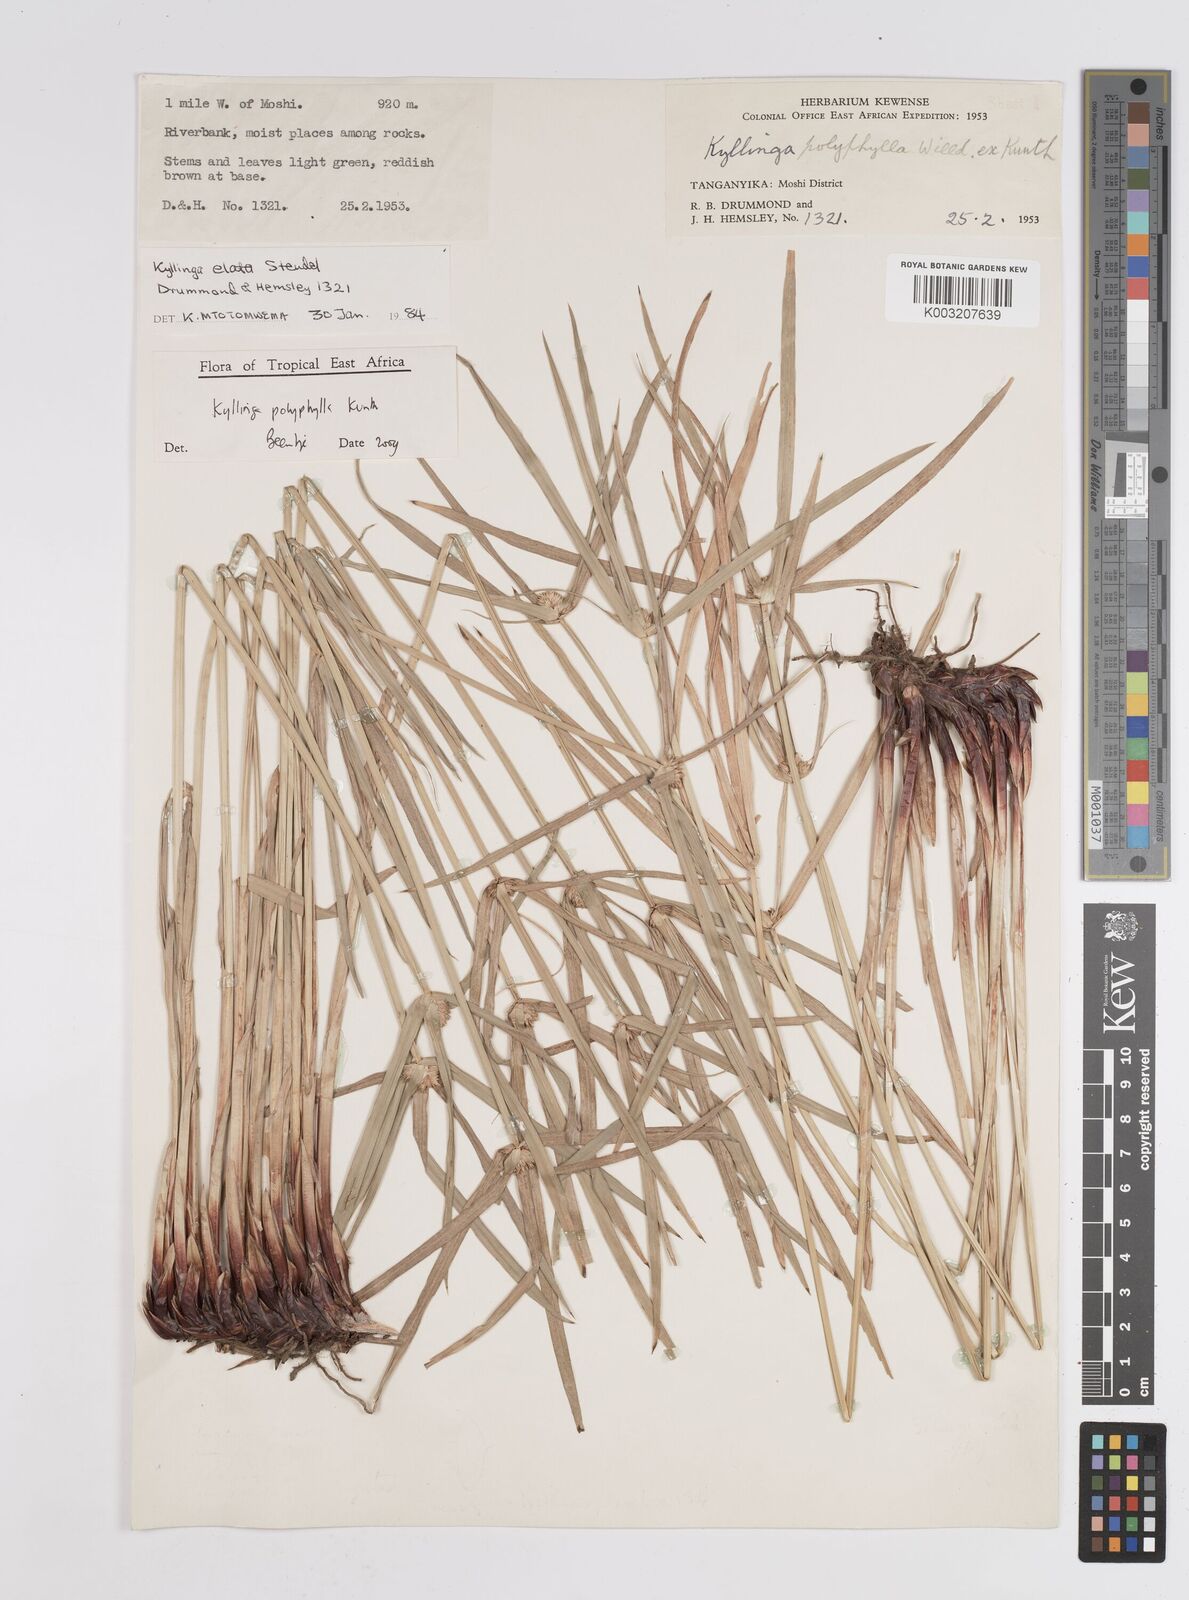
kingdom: Plantae
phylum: Tracheophyta
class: Liliopsida
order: Poales
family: Cyperaceae
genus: Cyperus
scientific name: Cyperus
